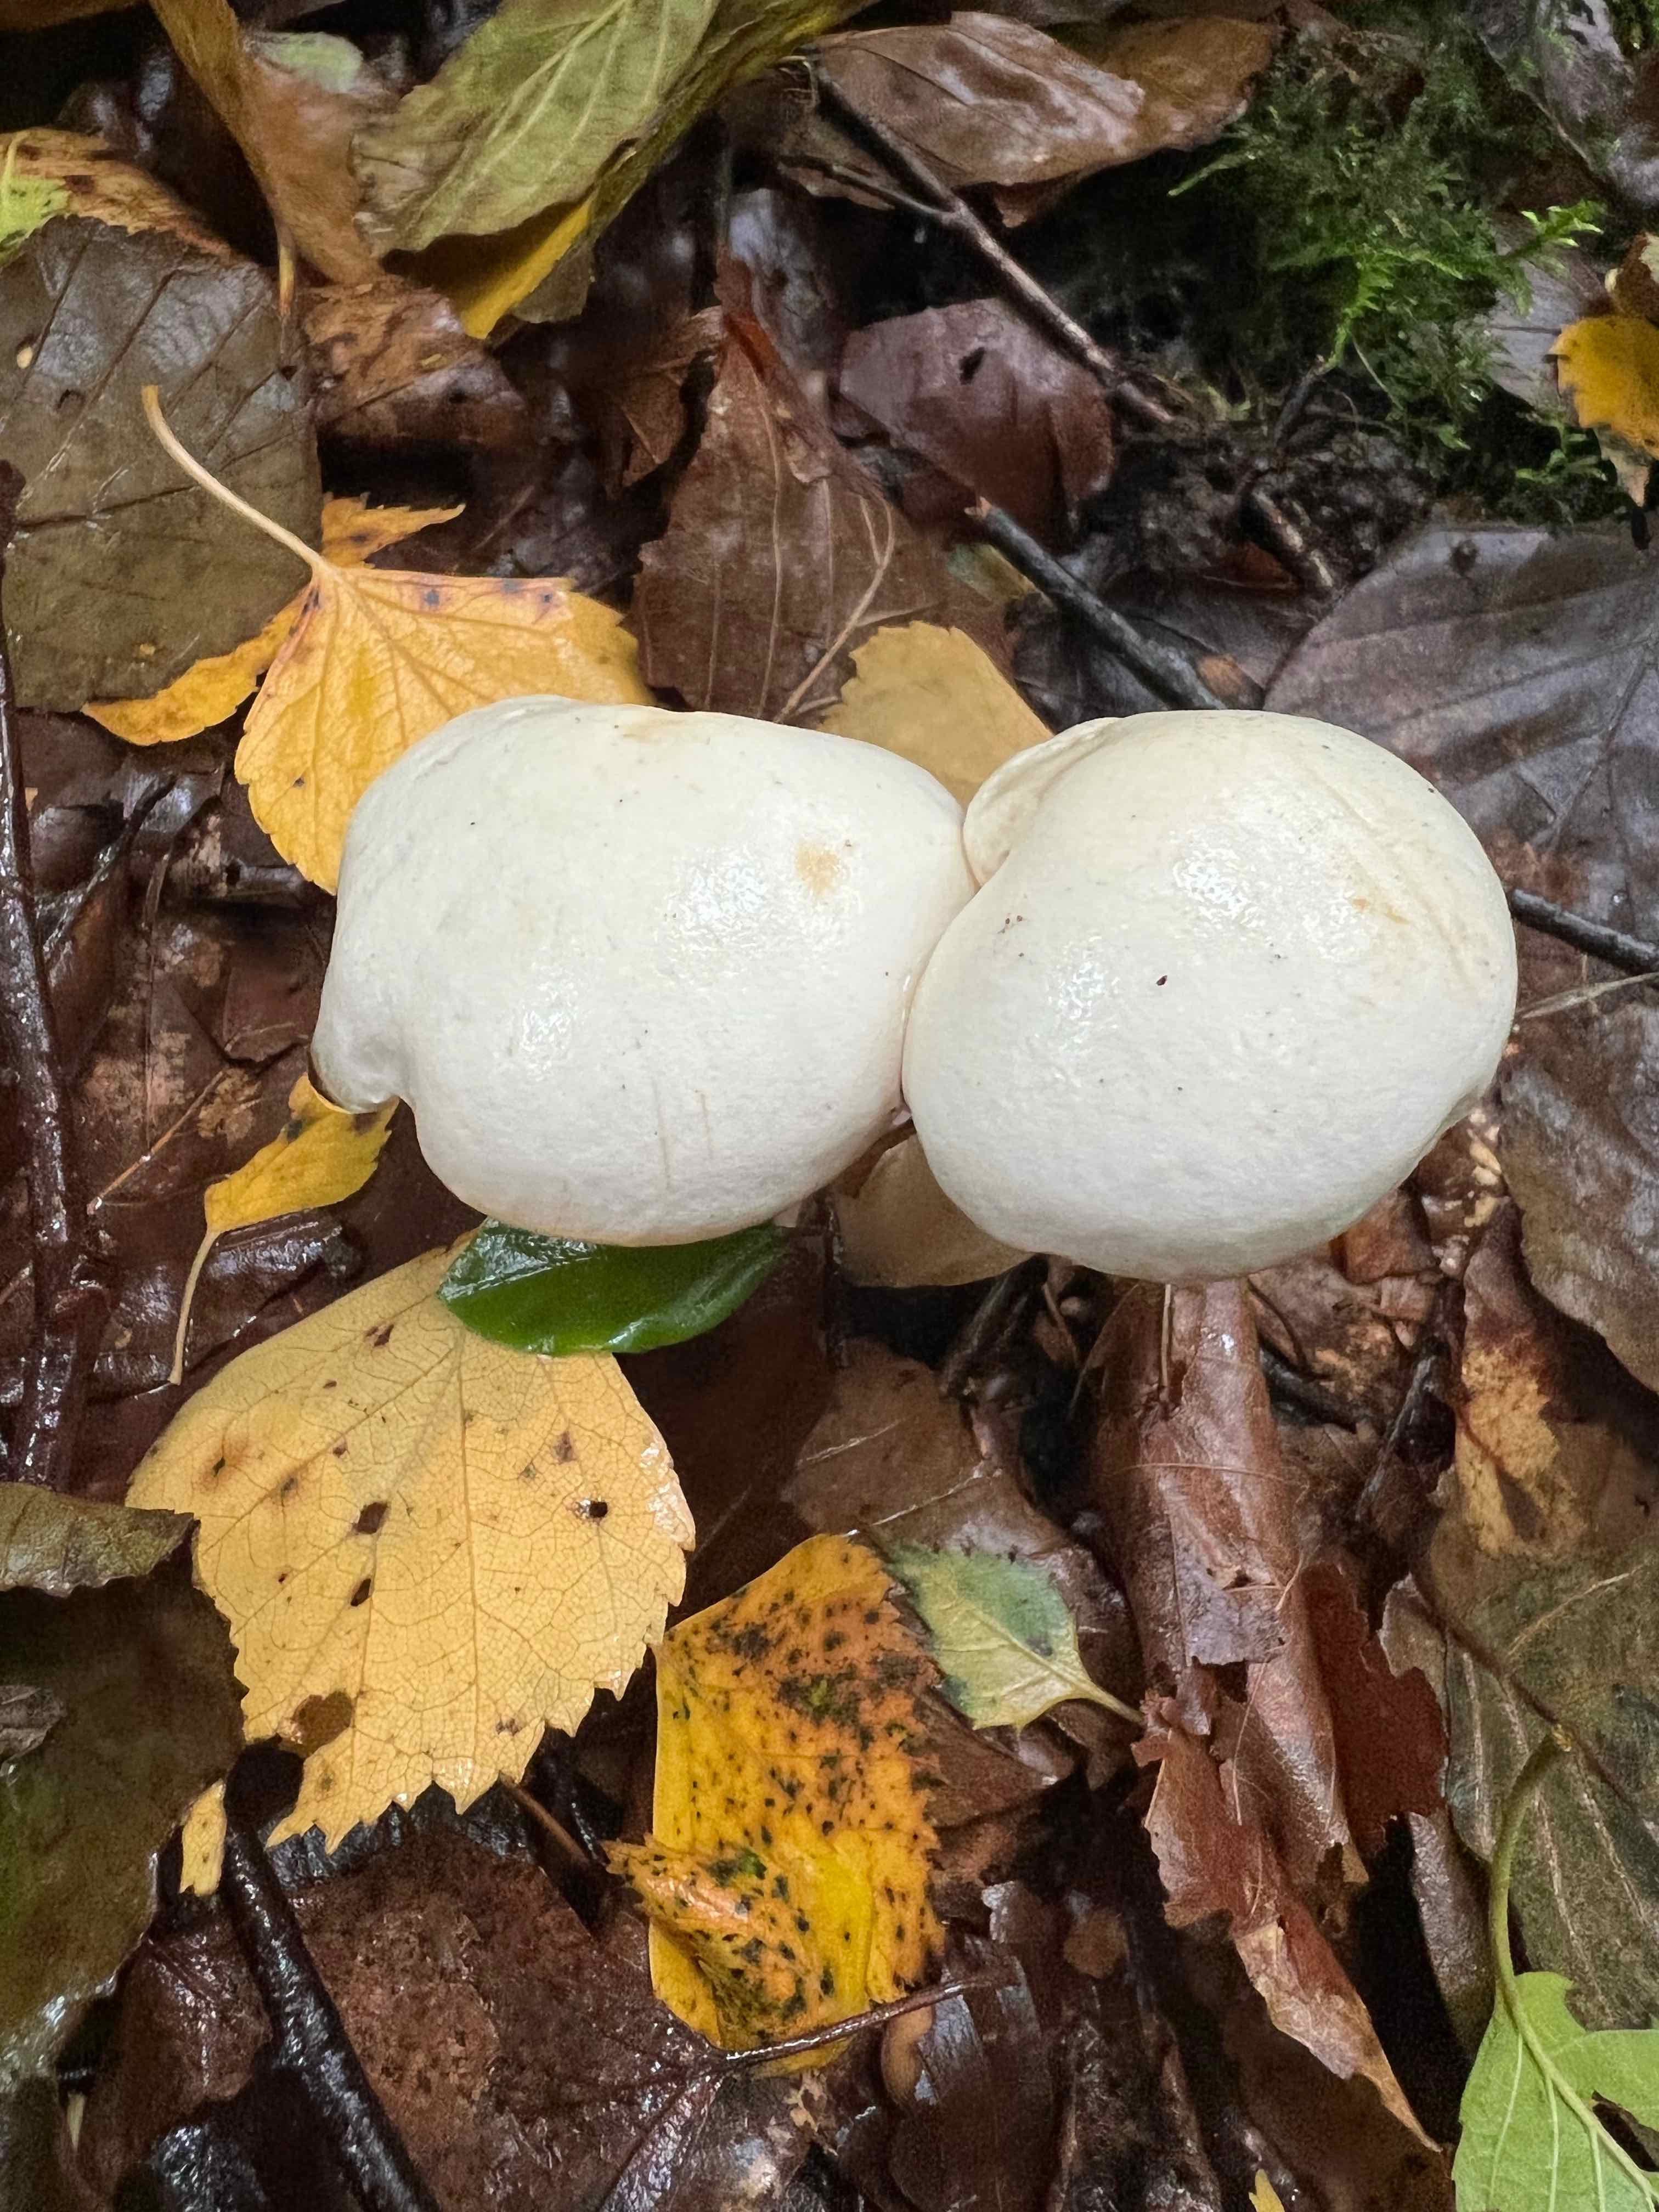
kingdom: Fungi
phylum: Basidiomycota
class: Agaricomycetes
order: Agaricales
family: Tricholomataceae
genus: Tricholoma
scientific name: Tricholoma stiparophyllum
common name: hvid ridderhat
